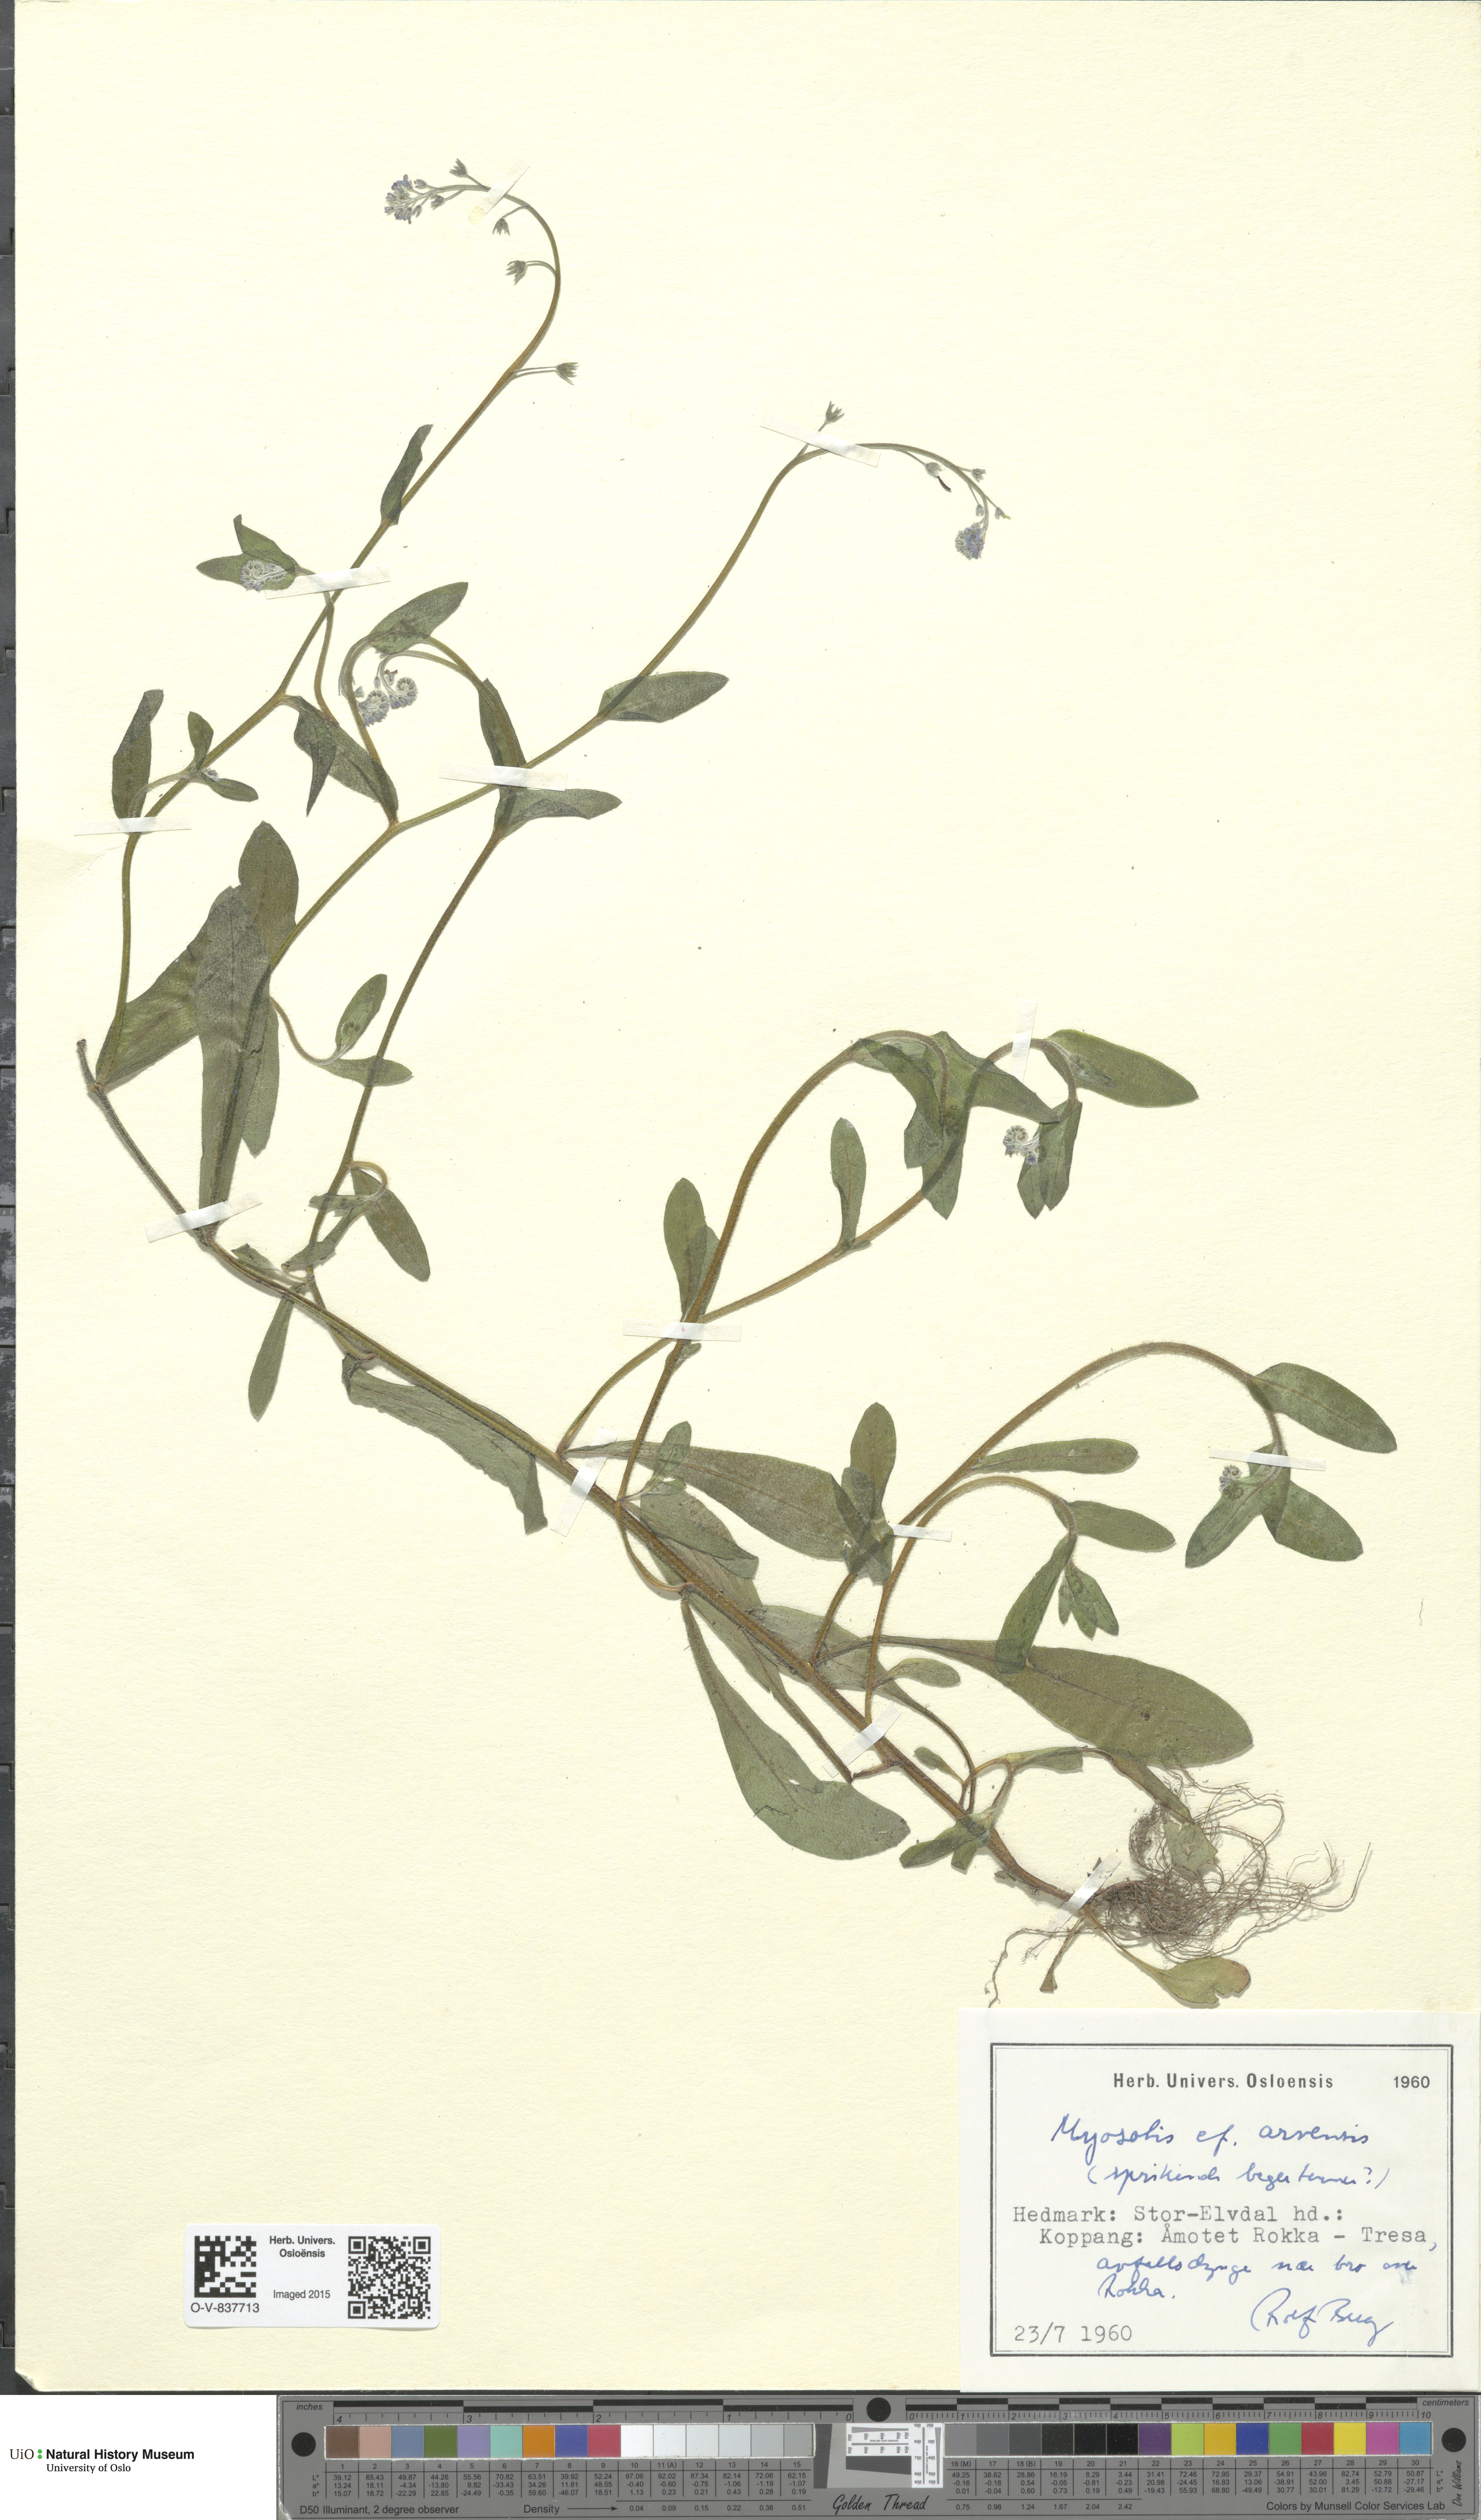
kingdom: Plantae
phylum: Tracheophyta
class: Magnoliopsida
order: Boraginales
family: Boraginaceae
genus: Myosotis
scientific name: Myosotis arvensis
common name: Field forget-me-not
